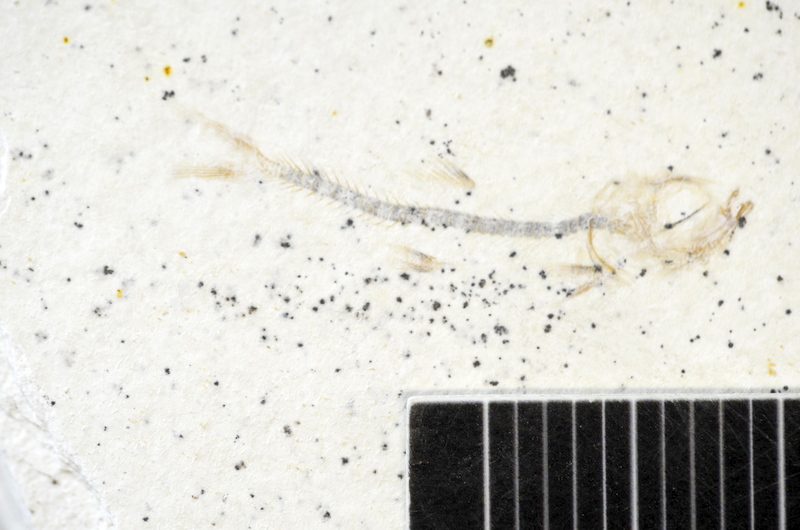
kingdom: Animalia
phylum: Chordata
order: Salmoniformes
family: Orthogonikleithridae
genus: Orthogonikleithrus
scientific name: Orthogonikleithrus hoelli
